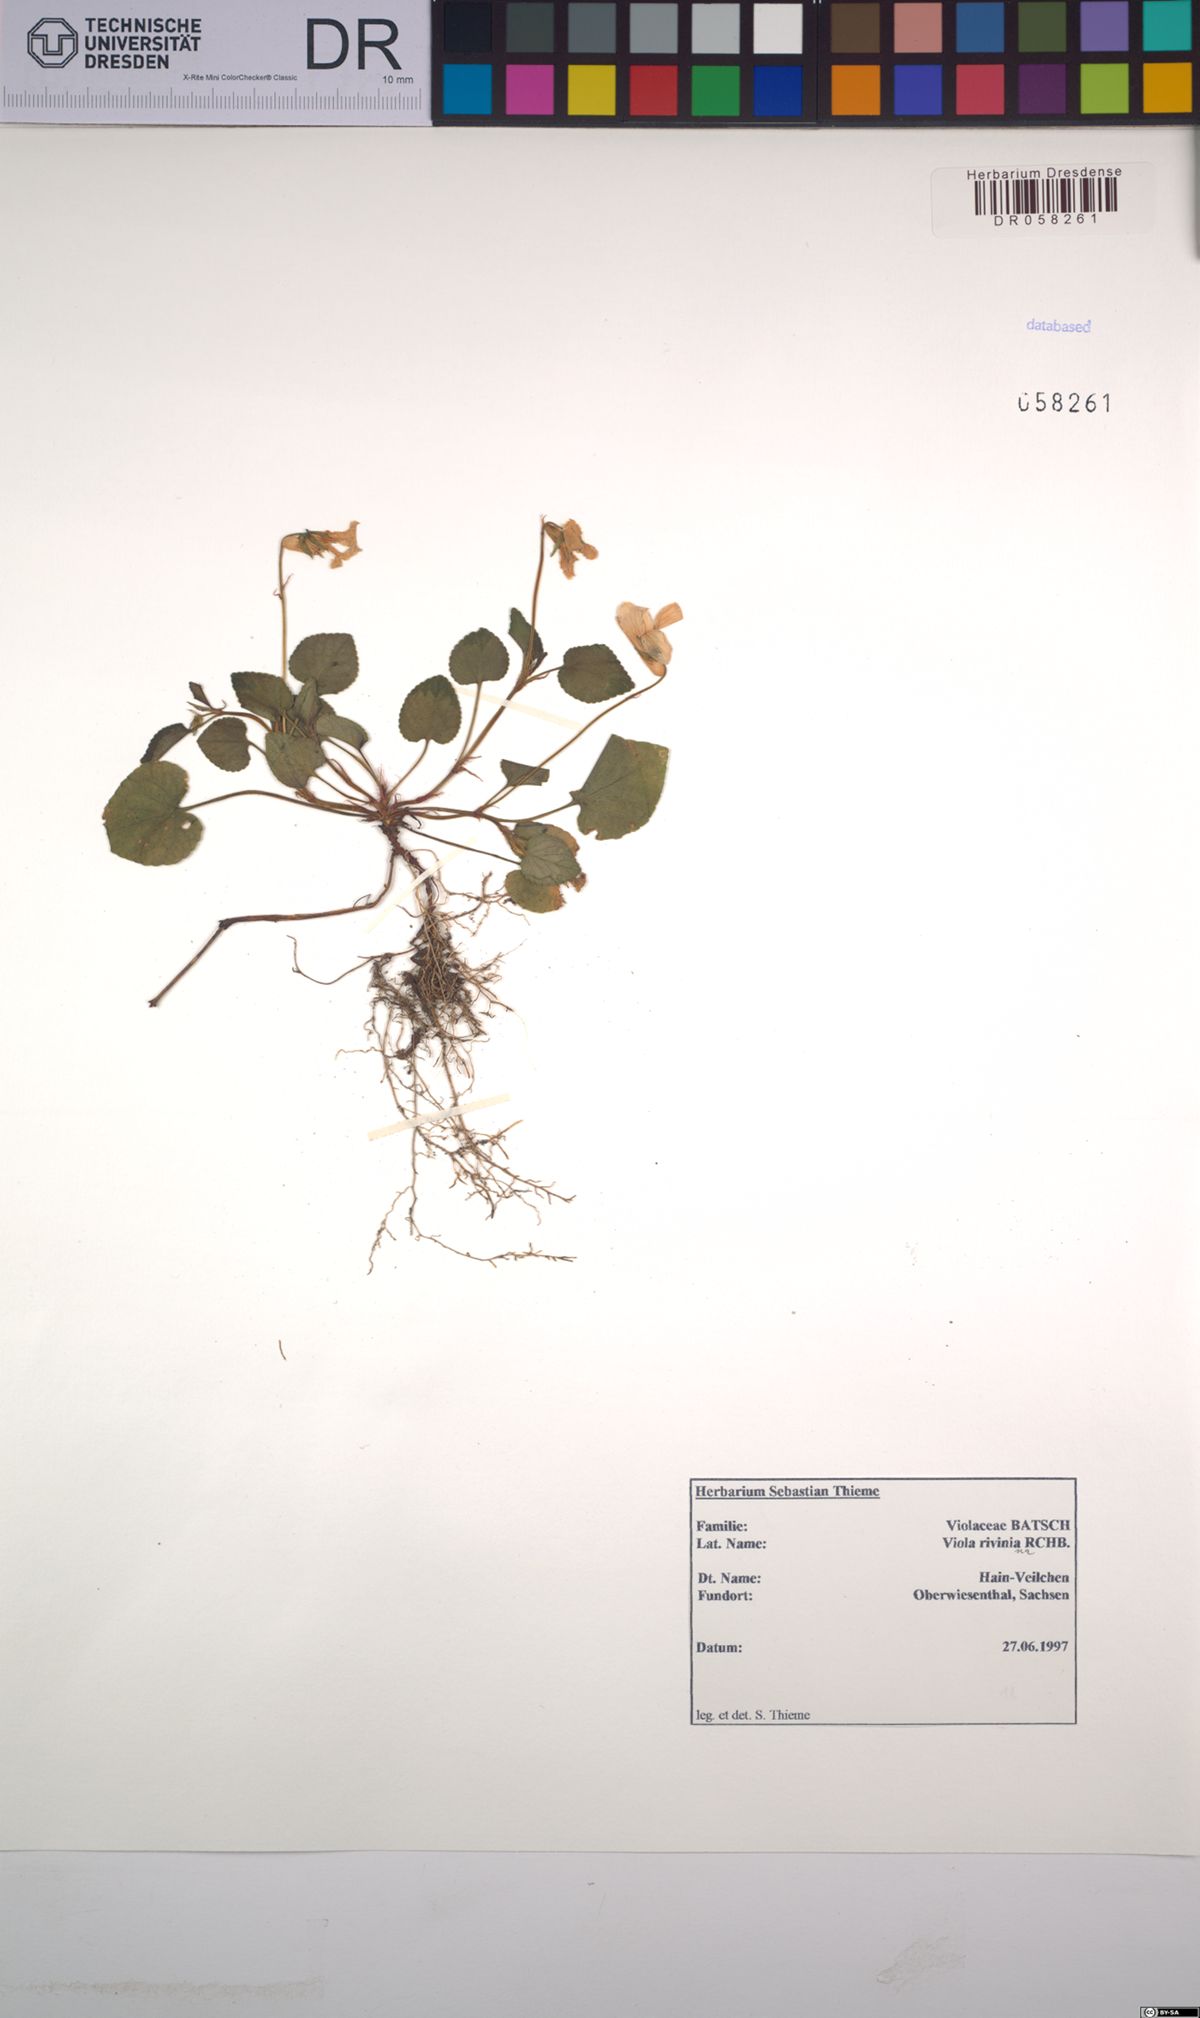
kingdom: Plantae
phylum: Tracheophyta
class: Magnoliopsida
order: Malpighiales
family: Violaceae
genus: Viola
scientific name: Viola riviniana
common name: Common dog-violet
